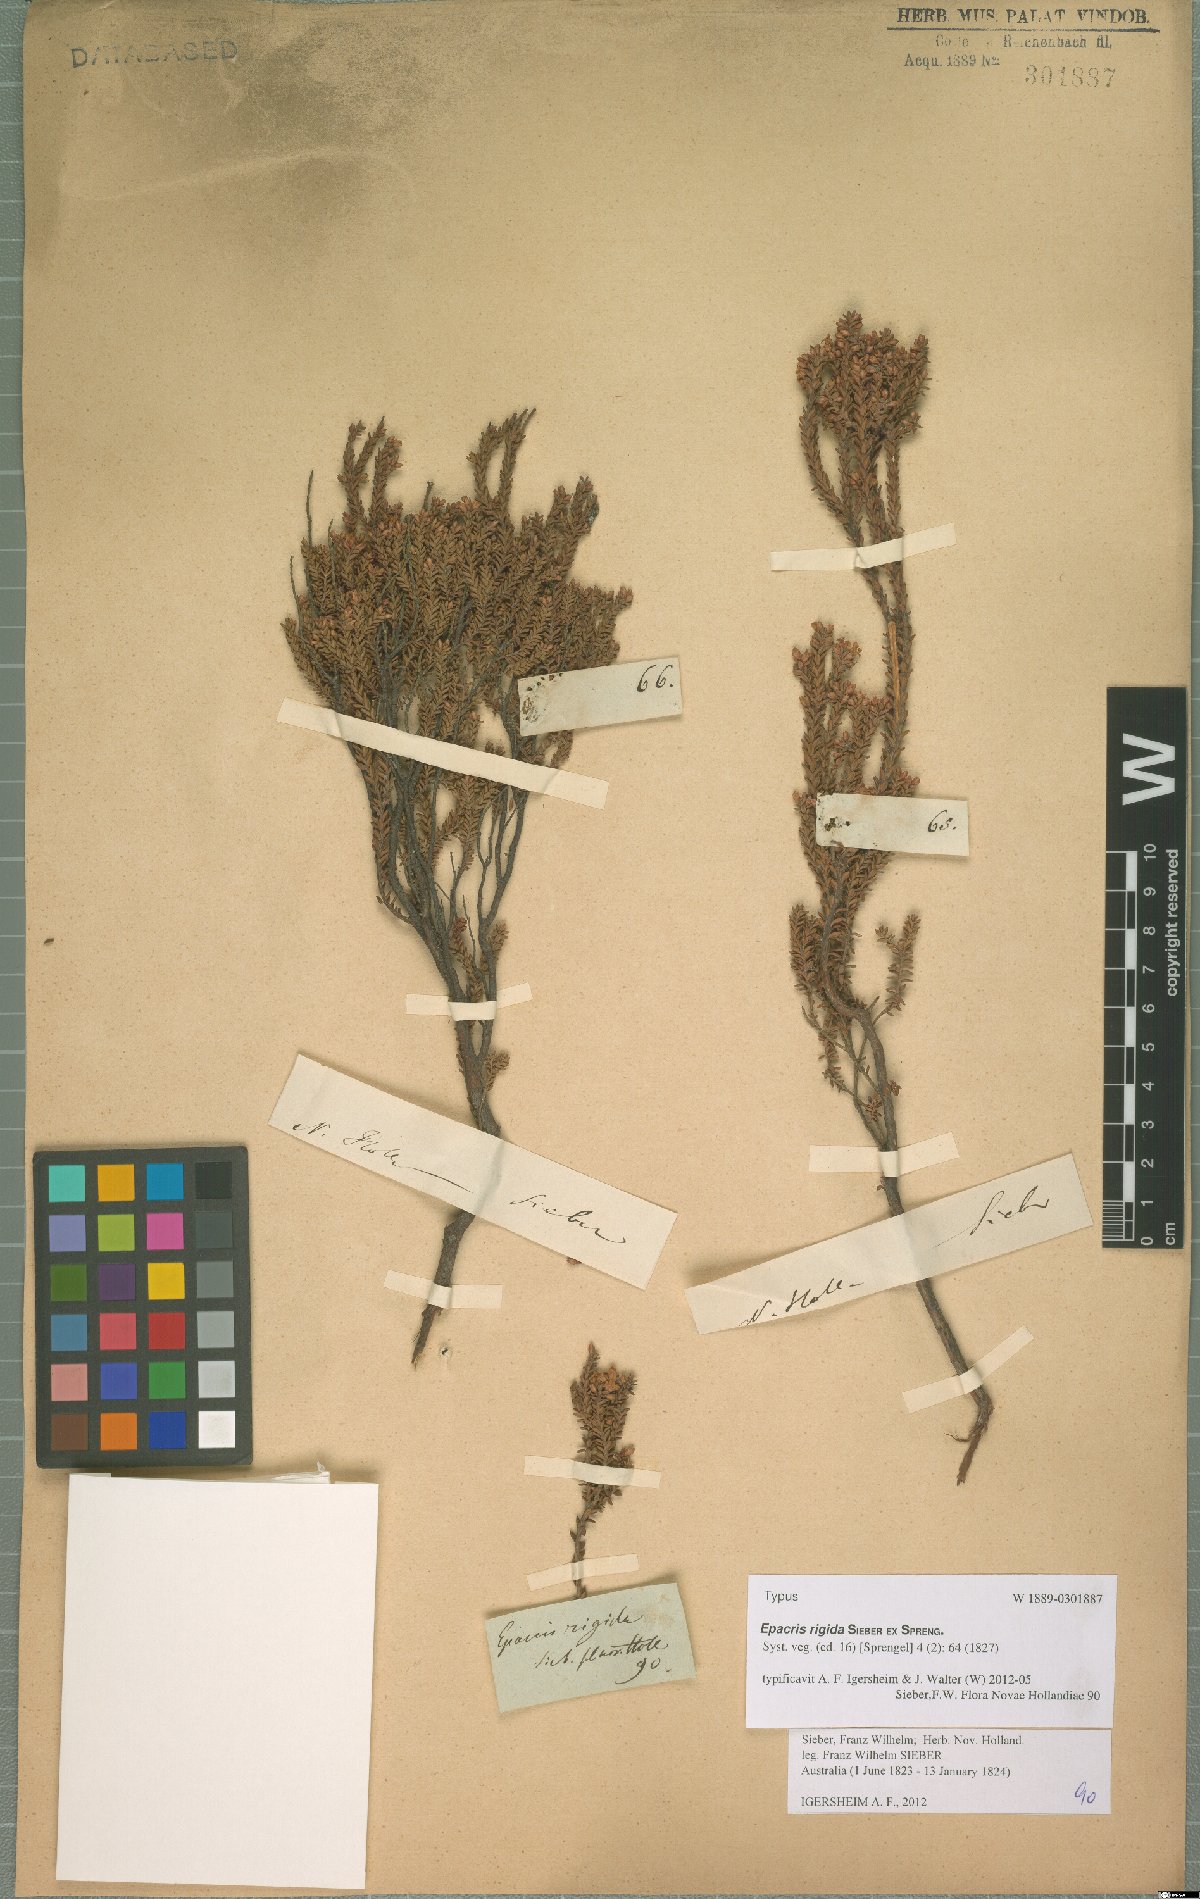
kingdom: Plantae
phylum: Tracheophyta
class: Magnoliopsida
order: Ericales
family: Ericaceae
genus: Epacris
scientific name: Epacris rigida
